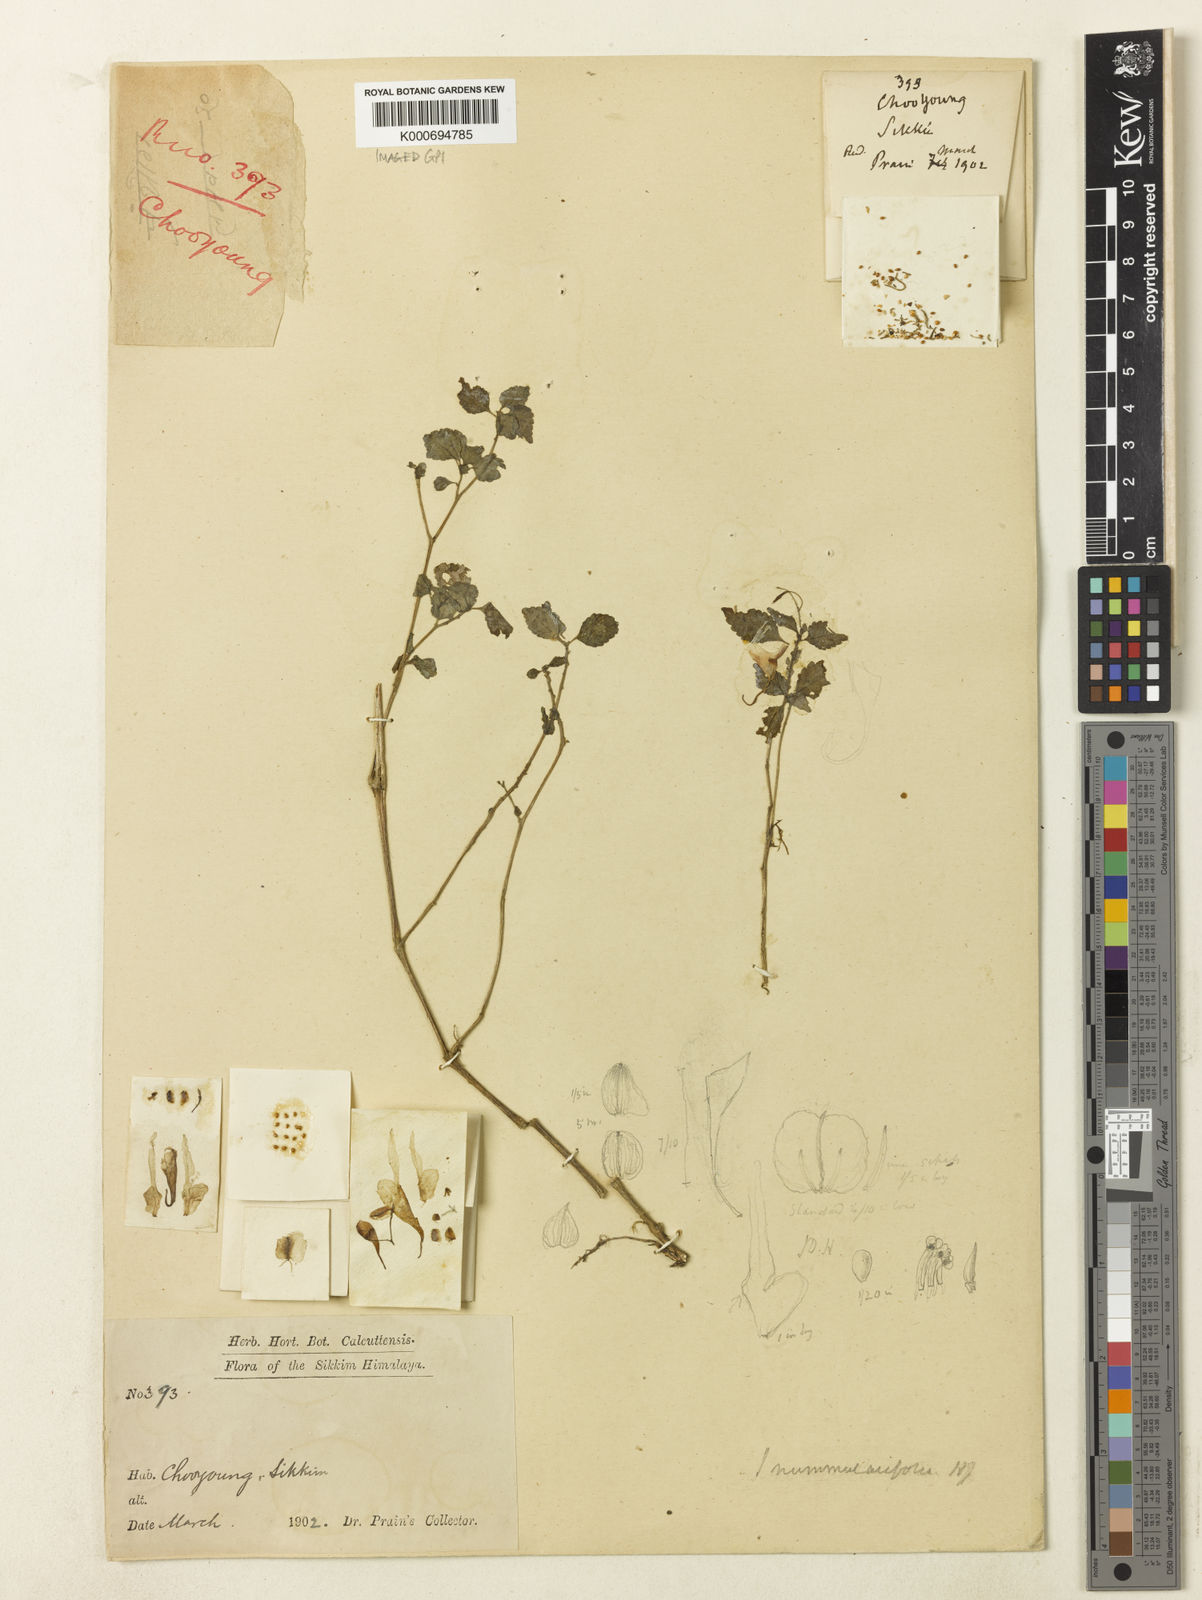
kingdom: Plantae
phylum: Tracheophyta
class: Magnoliopsida
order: Ericales
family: Balsaminaceae
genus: Impatiens
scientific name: Impatiens scitula
